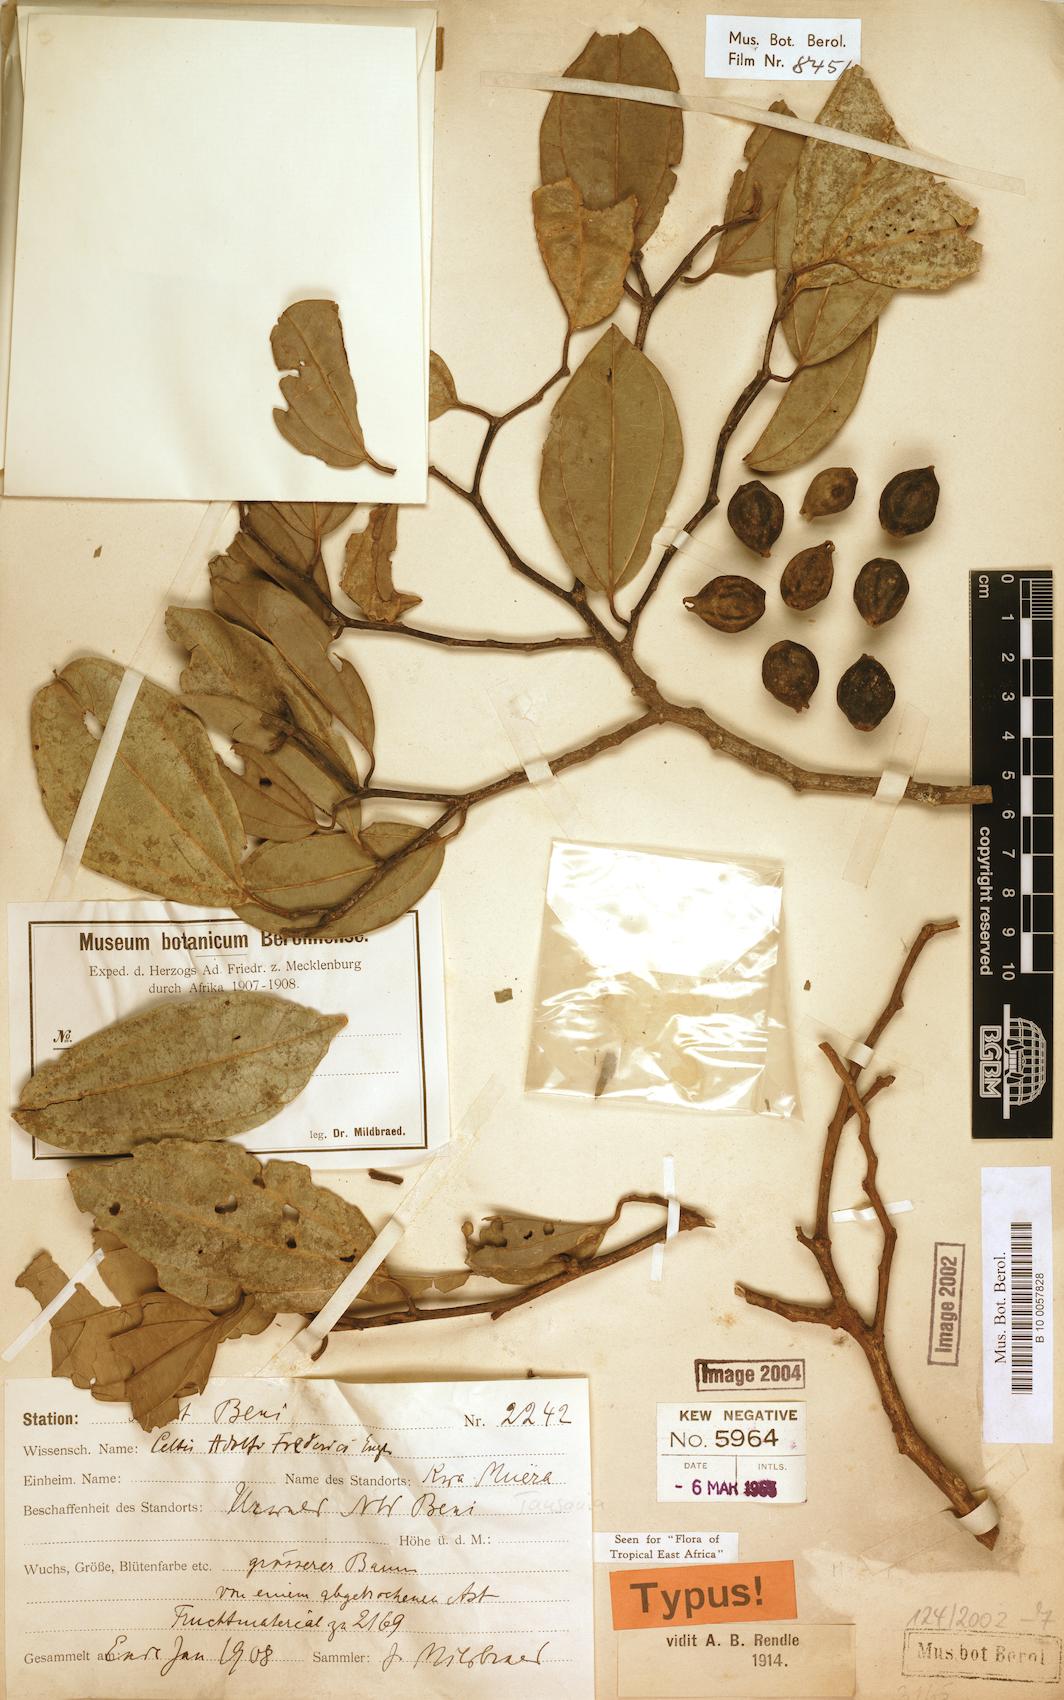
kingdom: Plantae
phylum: Tracheophyta
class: Magnoliopsida
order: Rosales
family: Cannabaceae
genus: Celtis
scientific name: Celtis adolfi-friderici
